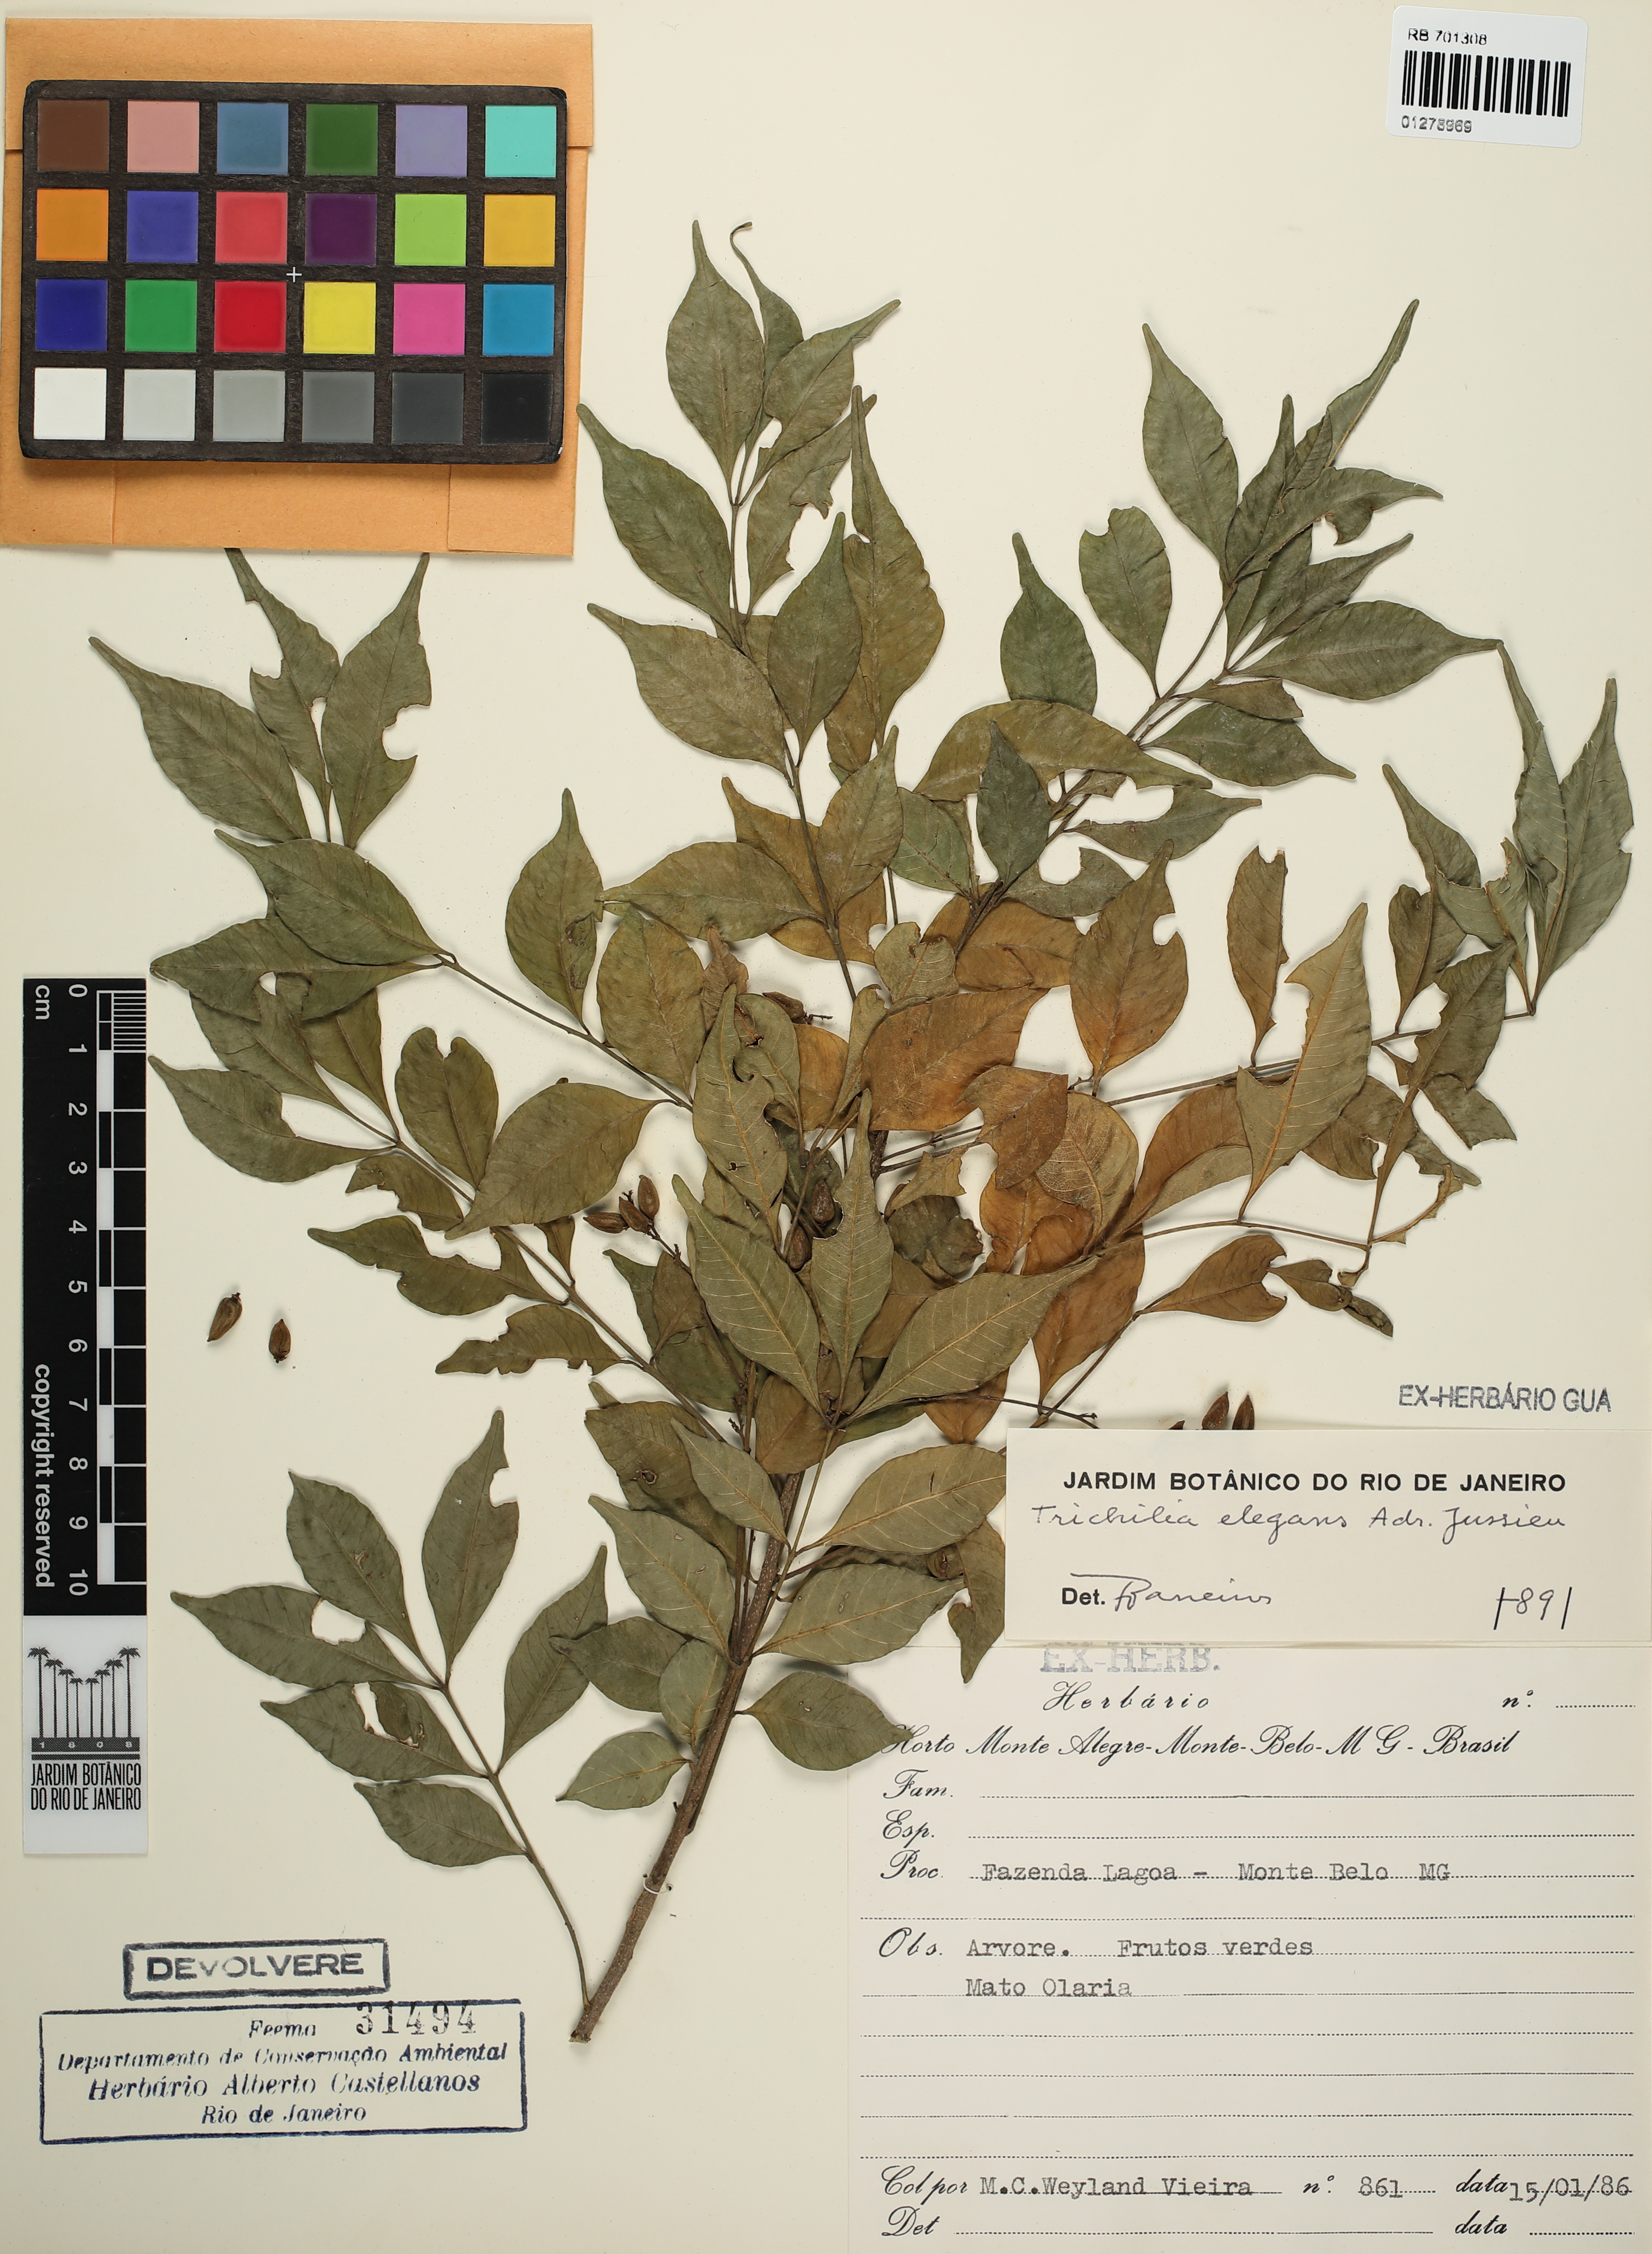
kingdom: Plantae
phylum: Tracheophyta
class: Magnoliopsida
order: Sapindales
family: Meliaceae
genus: Trichilia
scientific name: Trichilia elegans
